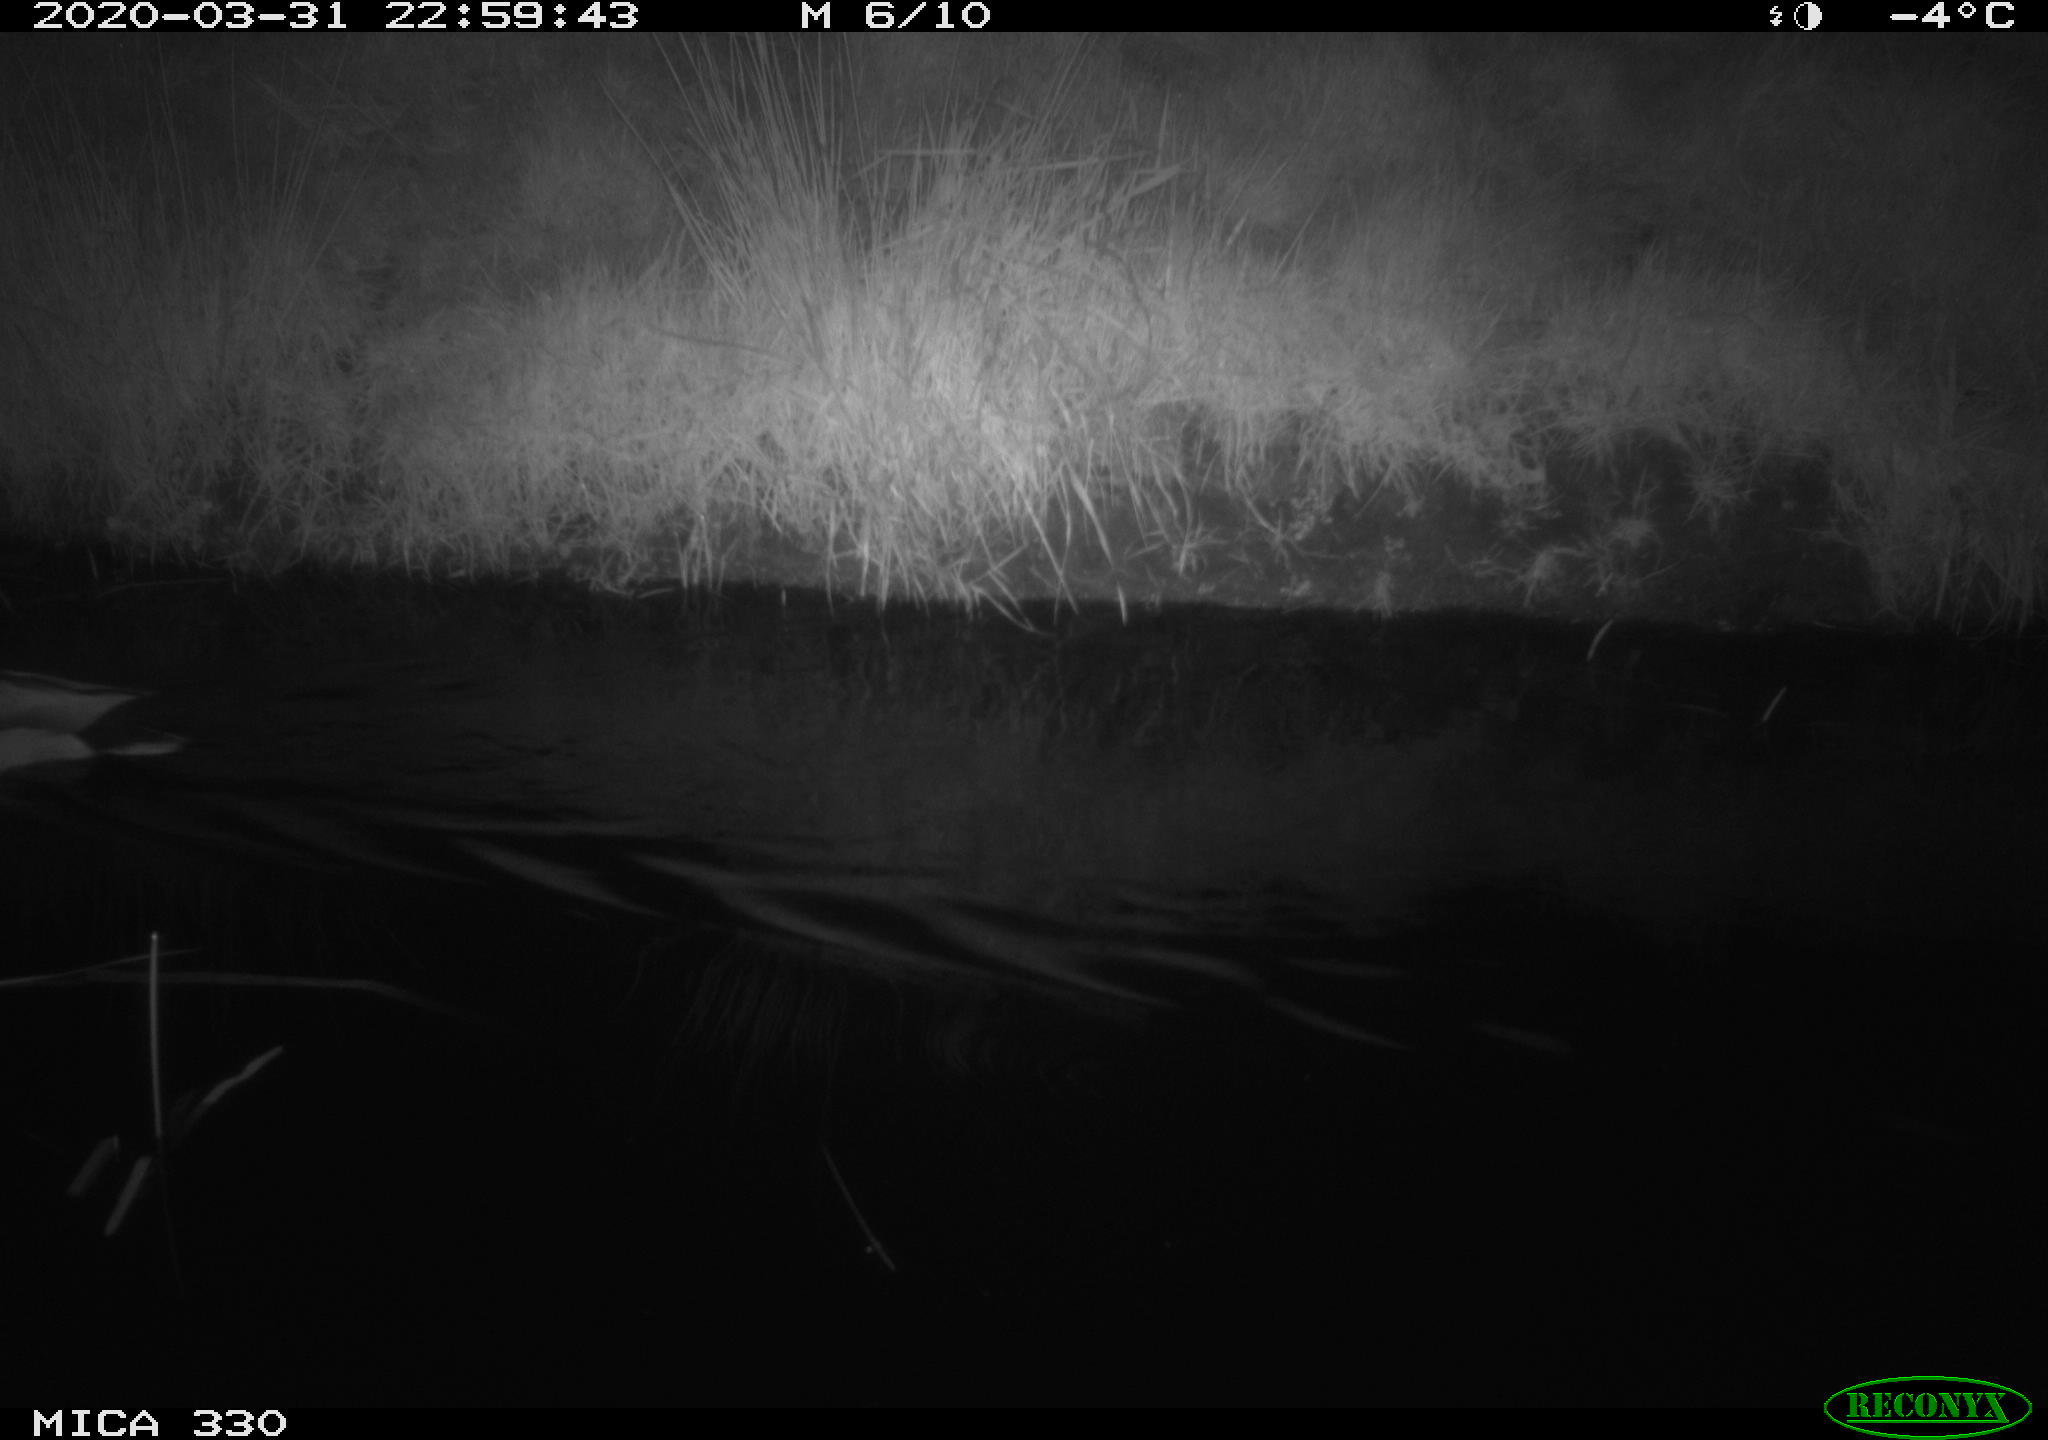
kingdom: Animalia
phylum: Chordata
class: Aves
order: Anseriformes
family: Anatidae
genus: Anas
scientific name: Anas platyrhynchos
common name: Mallard
